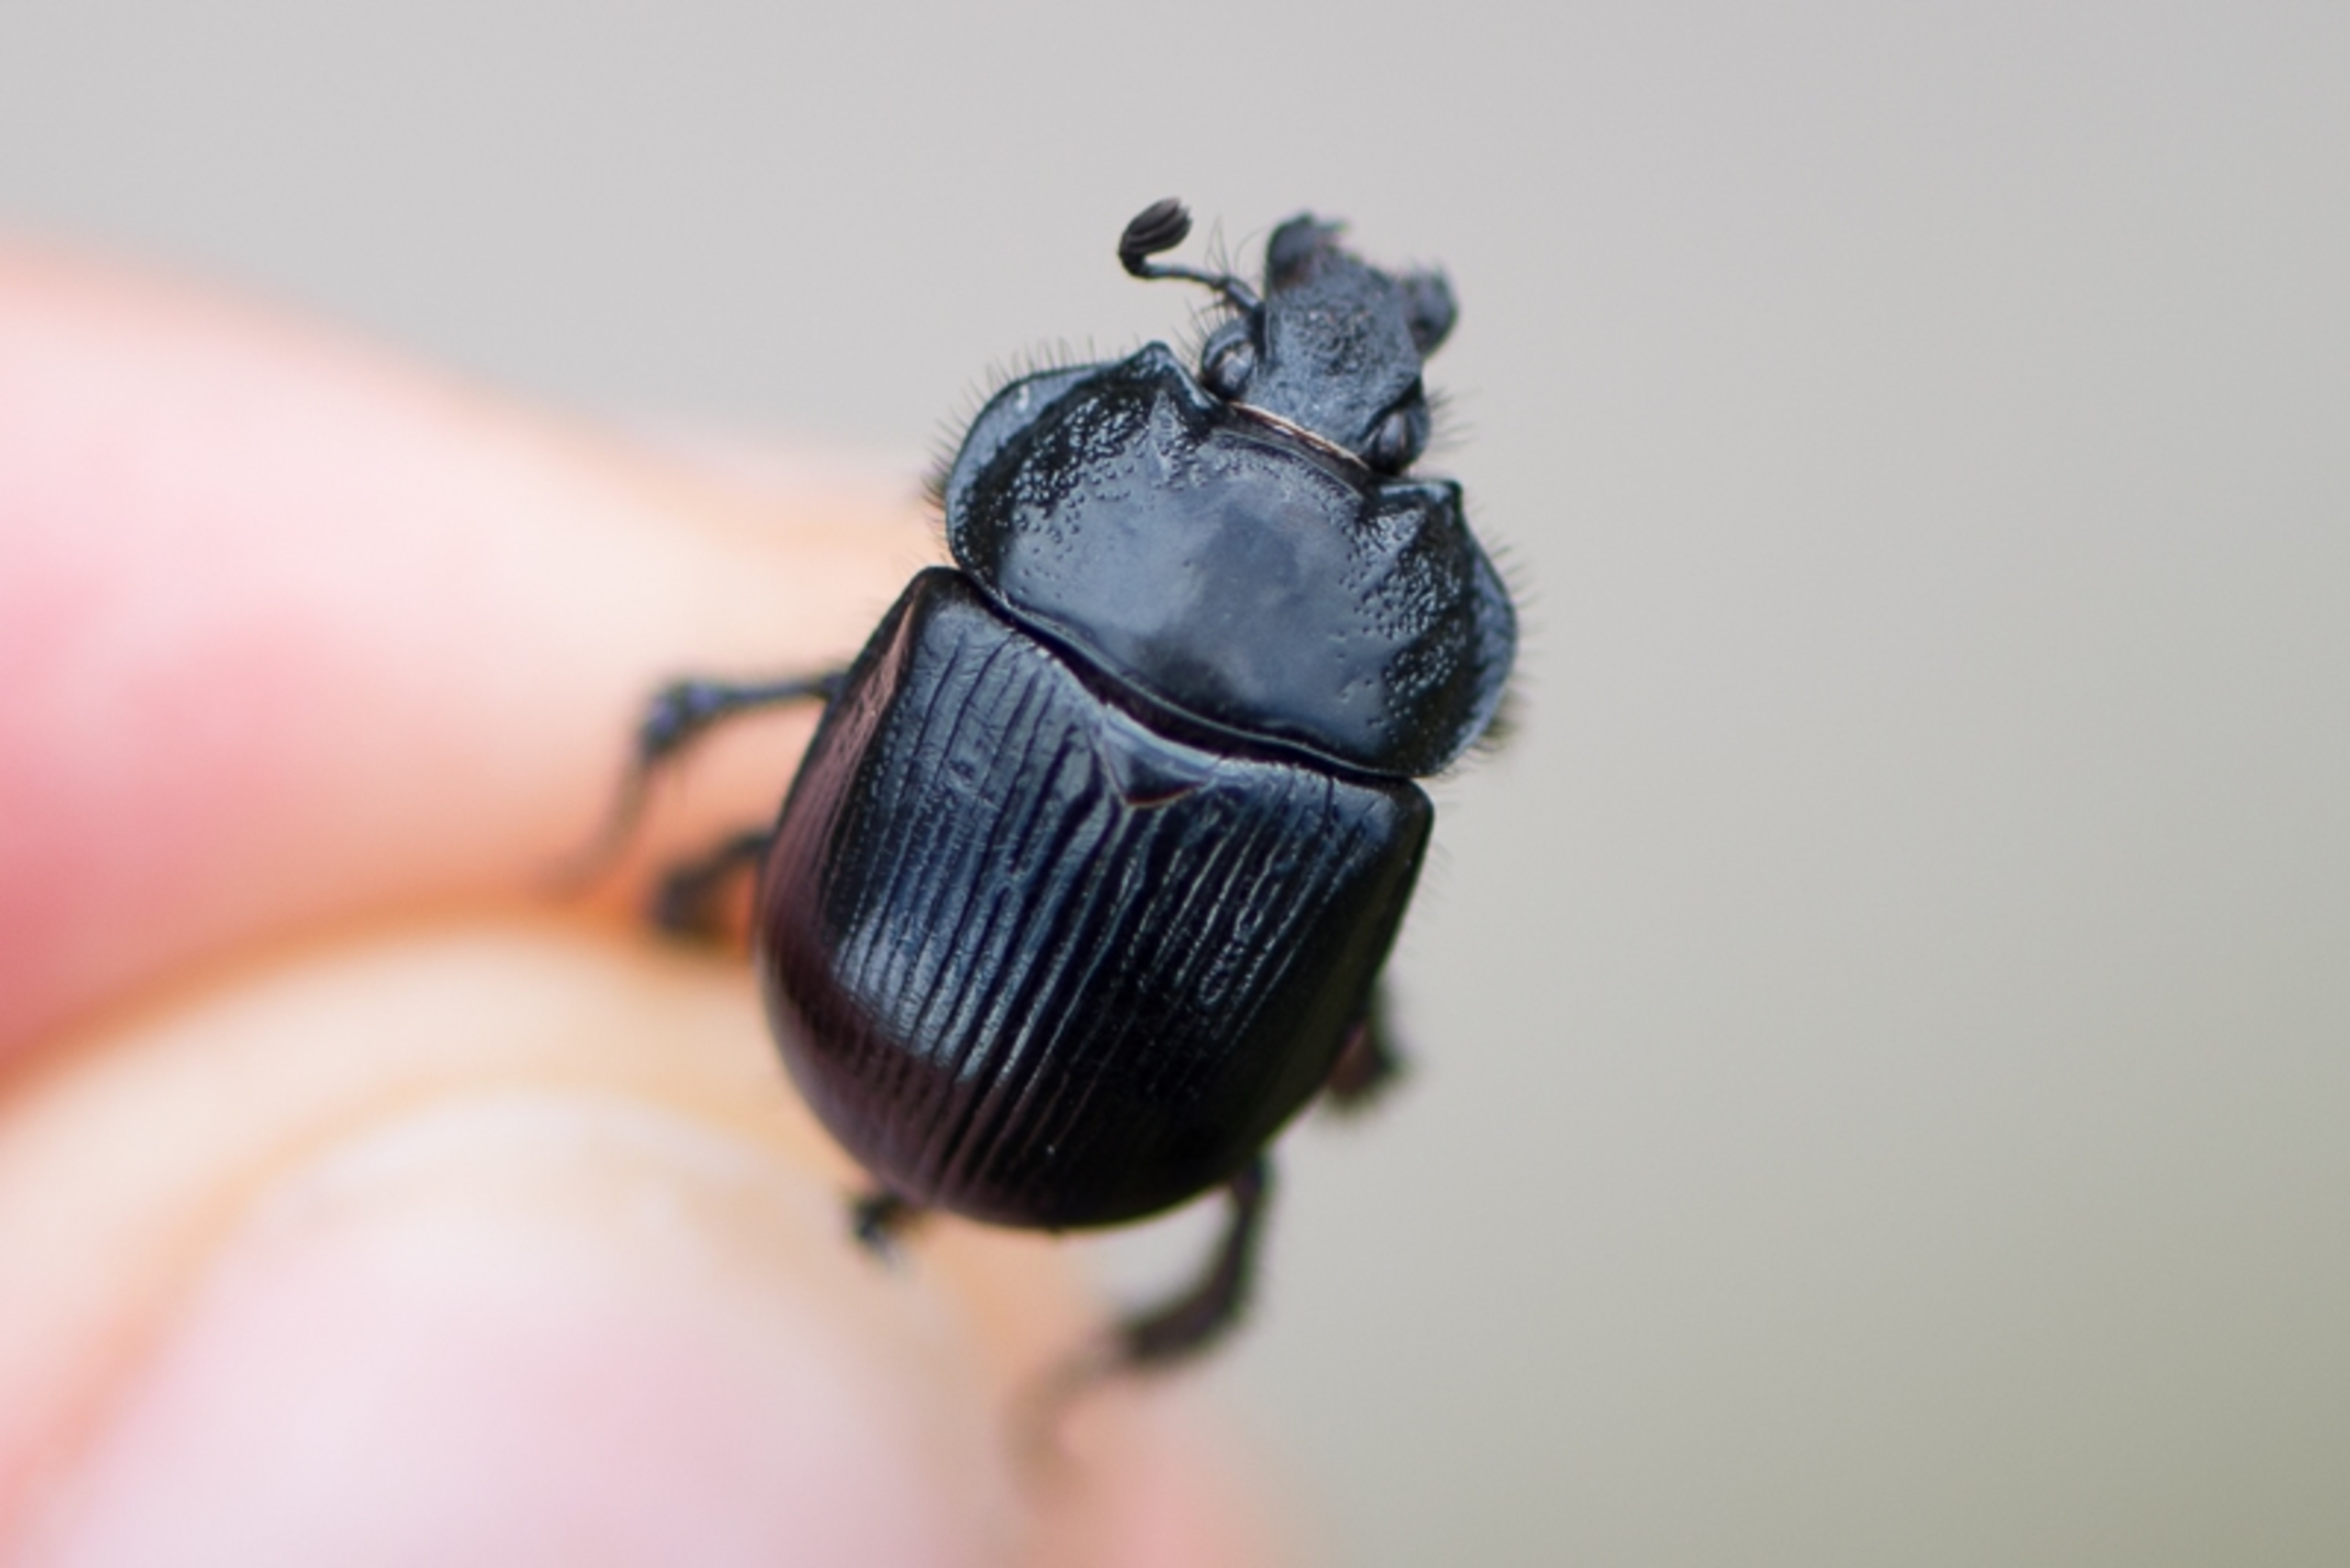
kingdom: Animalia
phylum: Arthropoda
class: Insecta
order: Coleoptera
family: Geotrupidae
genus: Typhaeus
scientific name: Typhaeus typhoeus
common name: Trehornet skarnbasse
